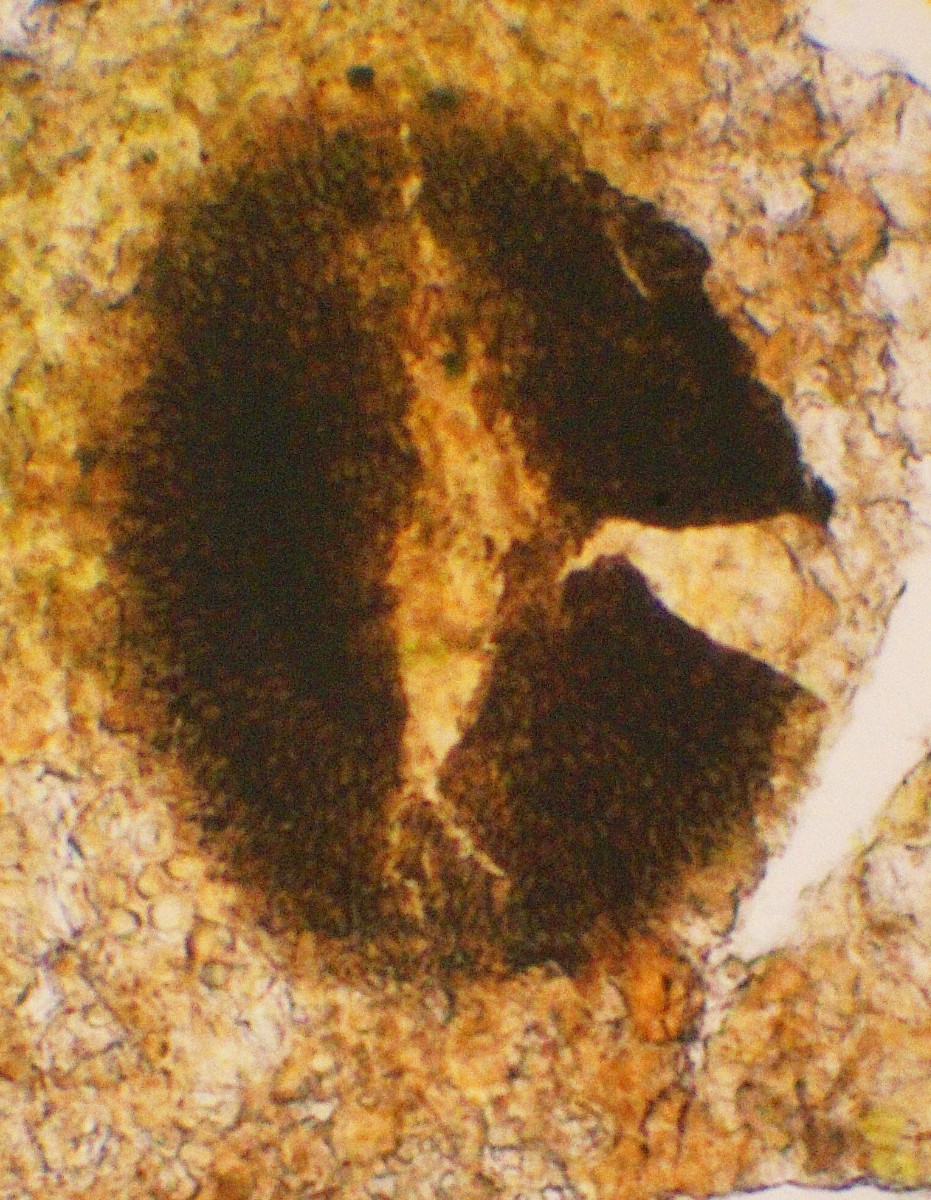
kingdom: Fungi
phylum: Ascomycota
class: Dothideomycetes
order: Lembosinales
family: Lembosinaceae
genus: Lembosina
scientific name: Lembosina aulographoides
